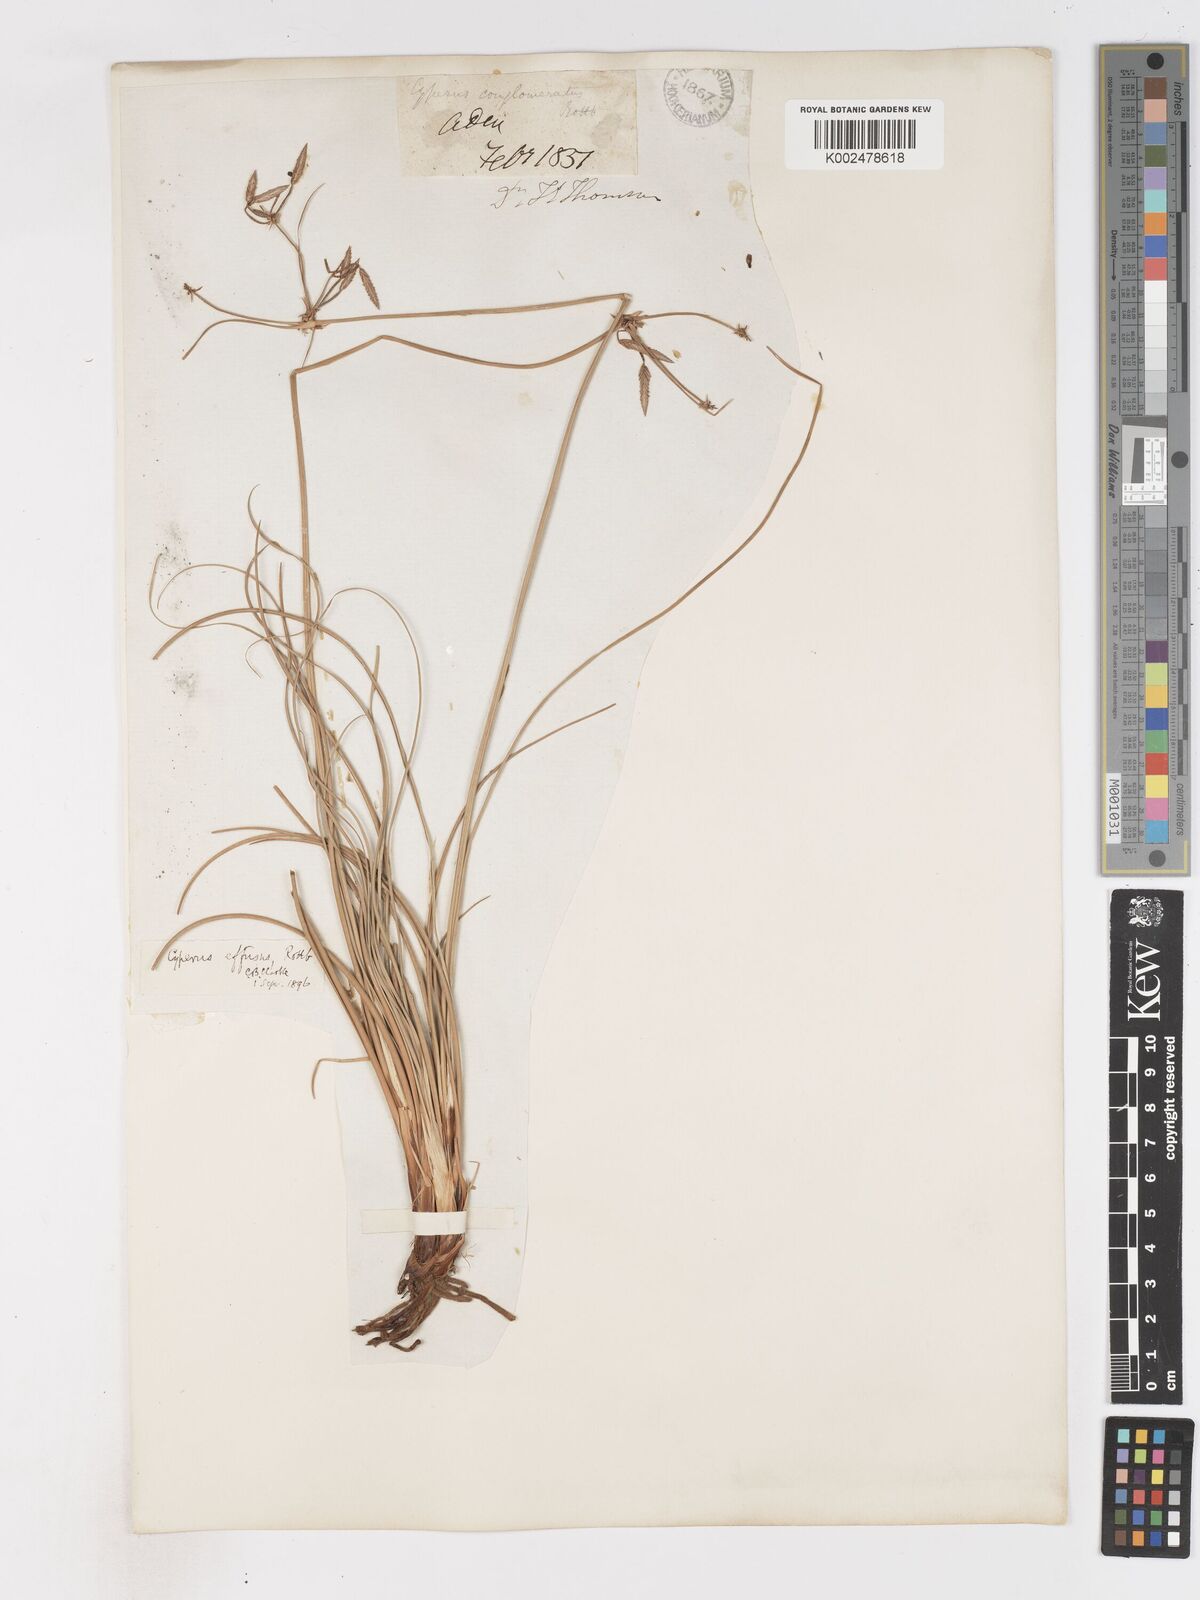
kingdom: Plantae
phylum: Tracheophyta
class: Liliopsida
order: Poales
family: Cyperaceae
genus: Cyperus
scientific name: Cyperus conglomeratus
